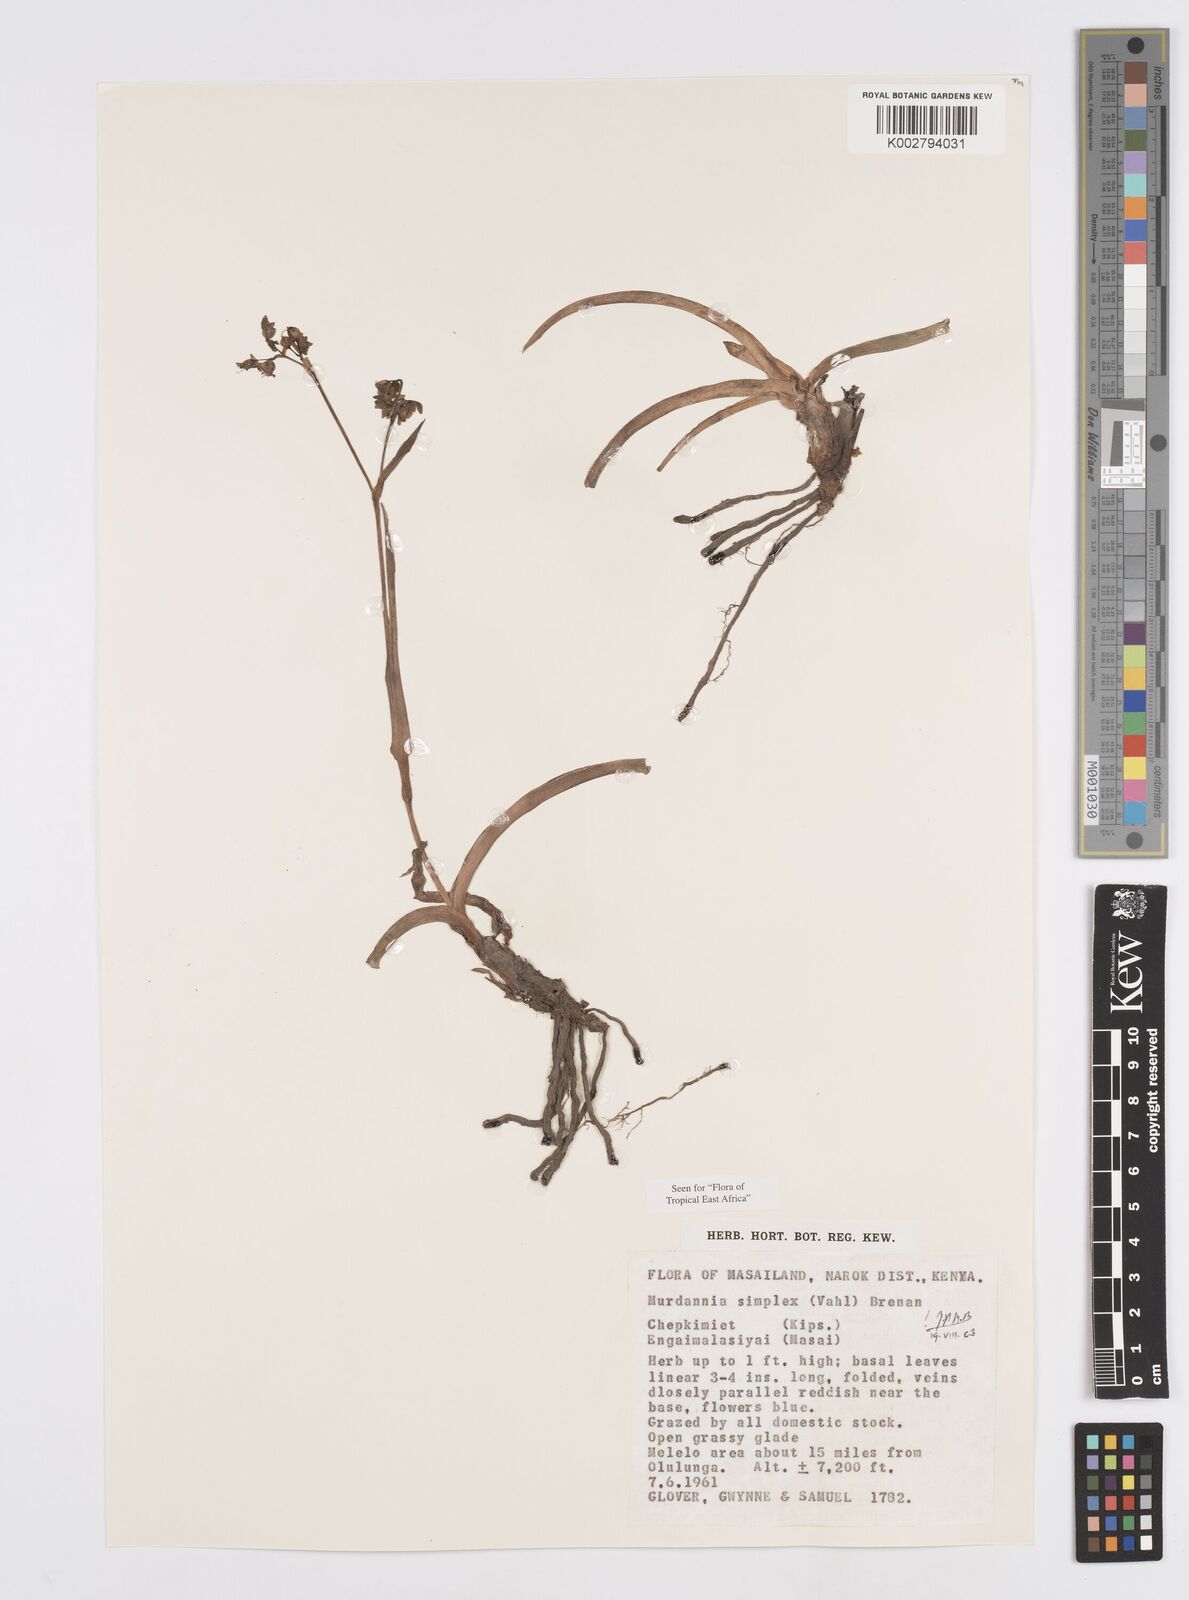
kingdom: Plantae
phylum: Tracheophyta
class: Liliopsida
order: Commelinales
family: Commelinaceae
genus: Murdannia
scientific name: Murdannia simplex
